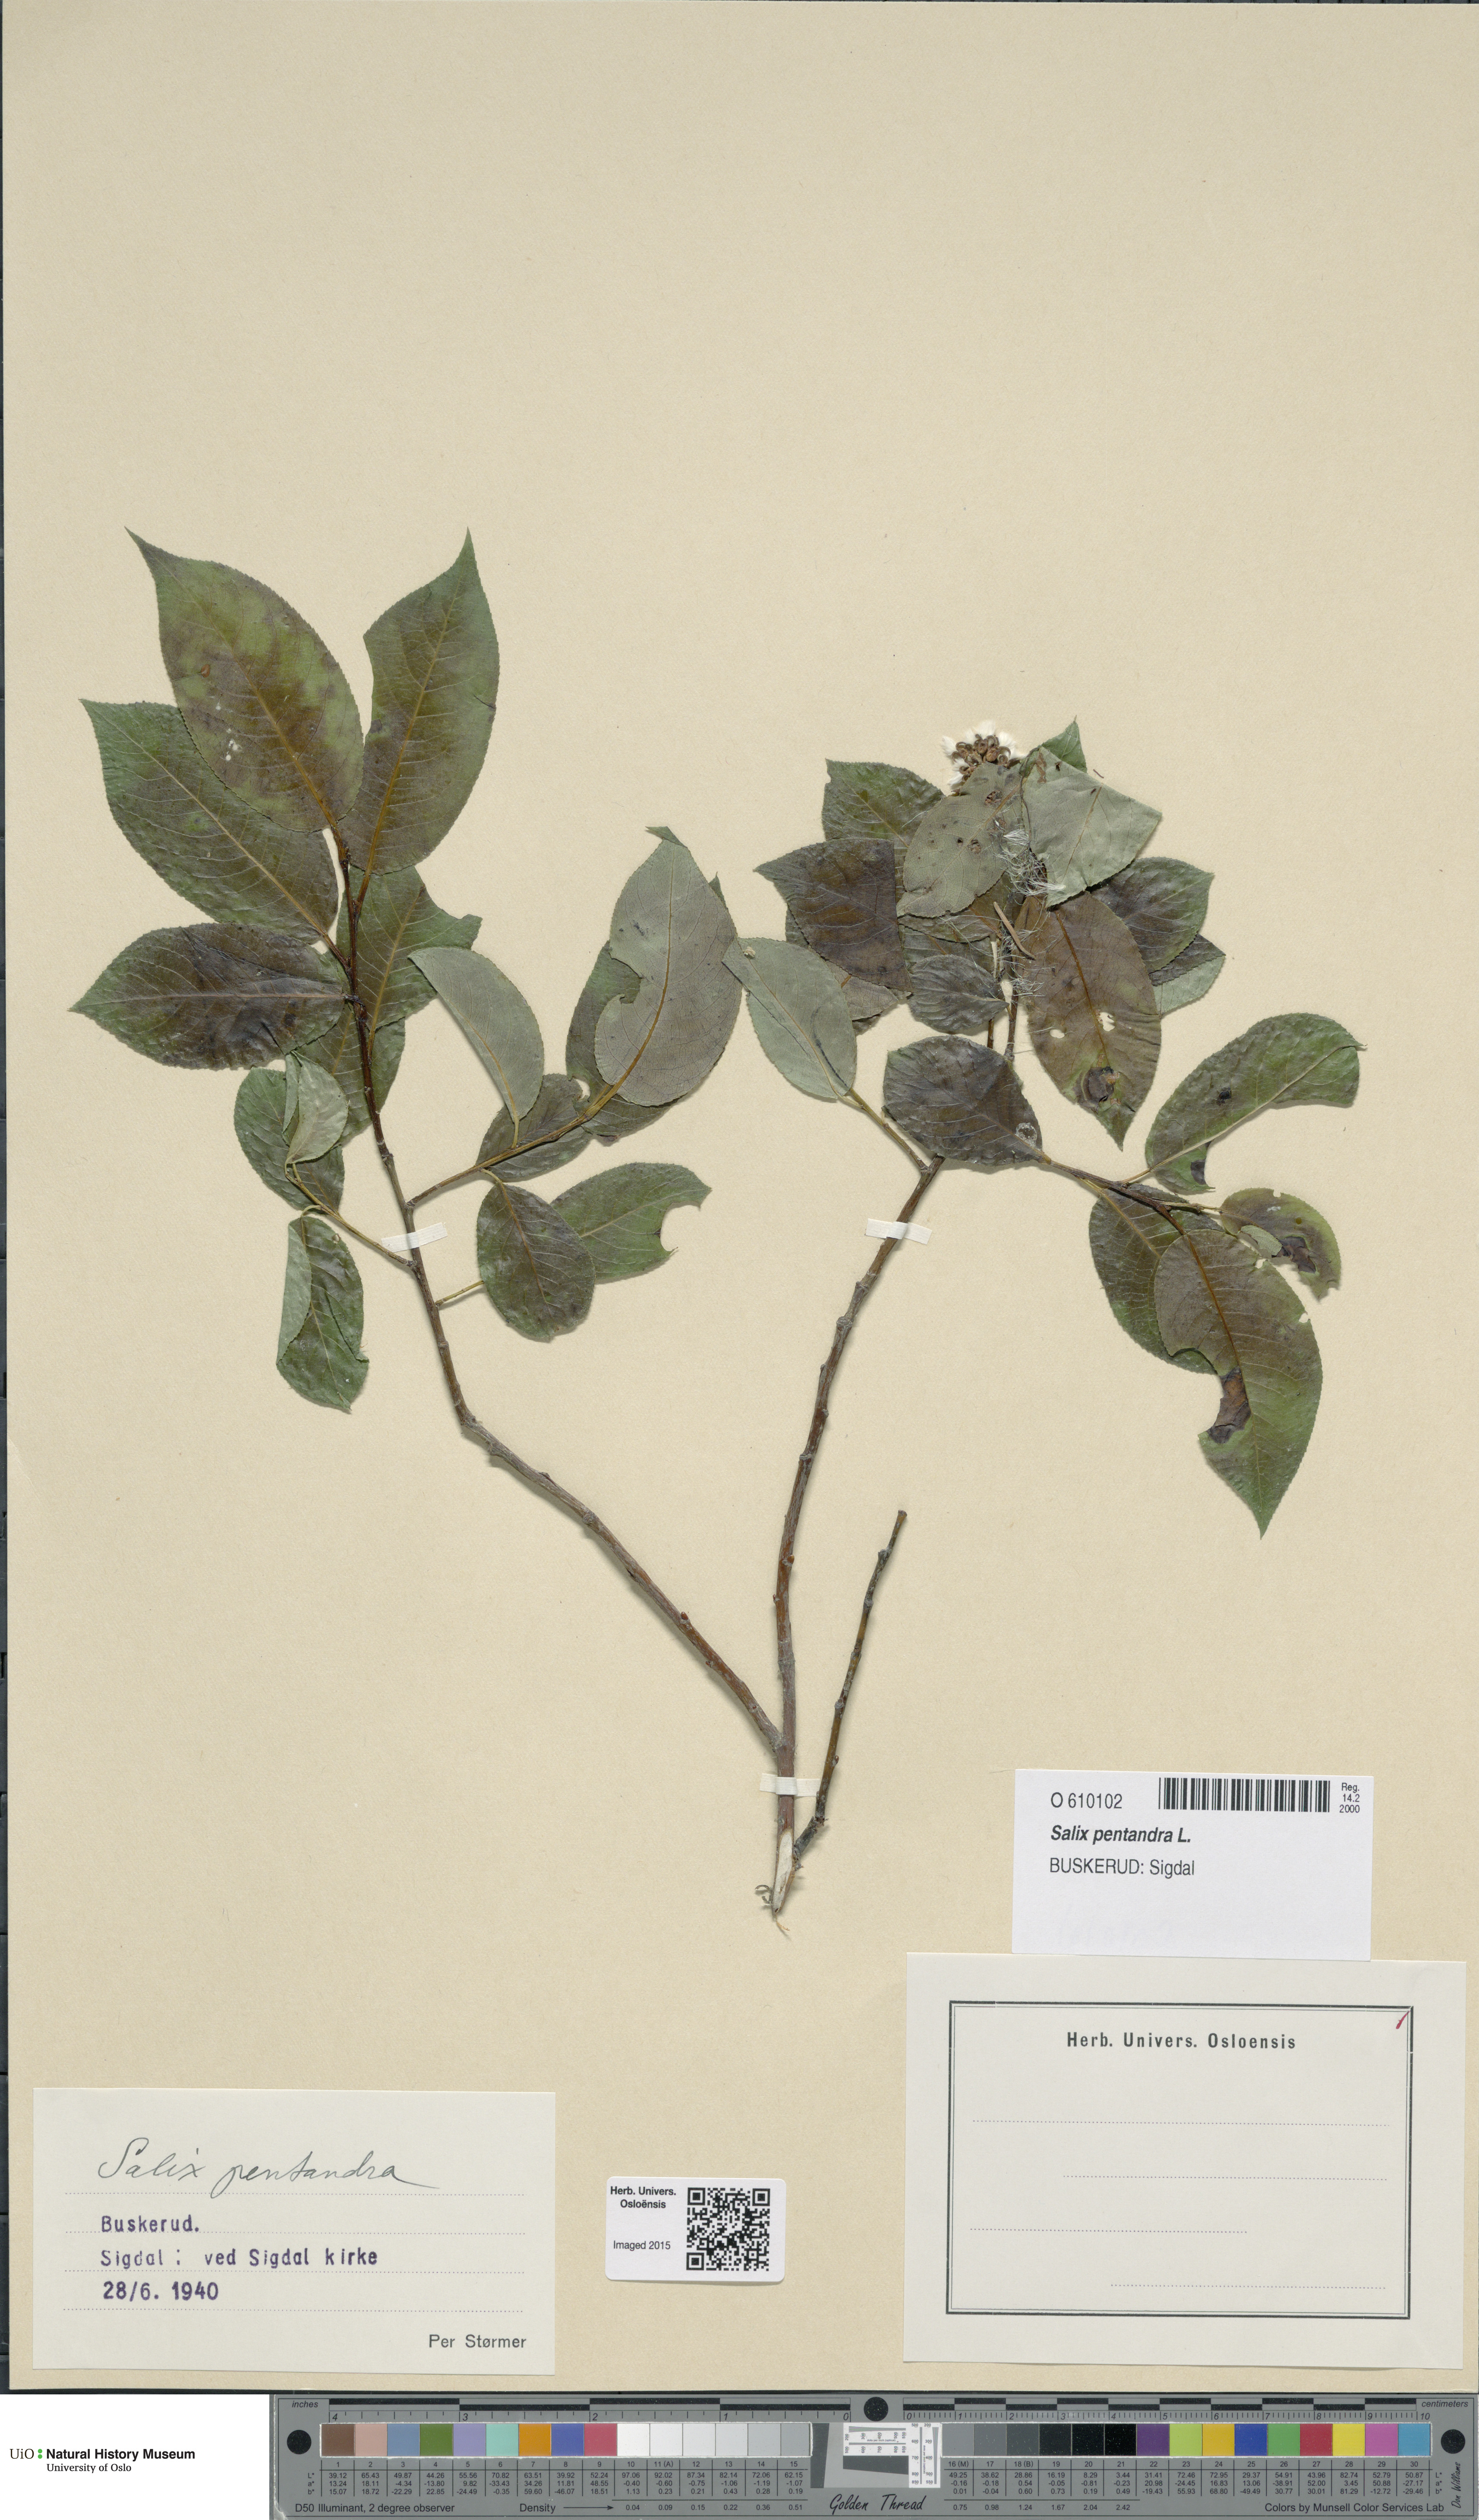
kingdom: Plantae
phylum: Tracheophyta
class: Magnoliopsida
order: Malpighiales
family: Salicaceae
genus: Salix
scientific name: Salix pentandra
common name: Bay willow
